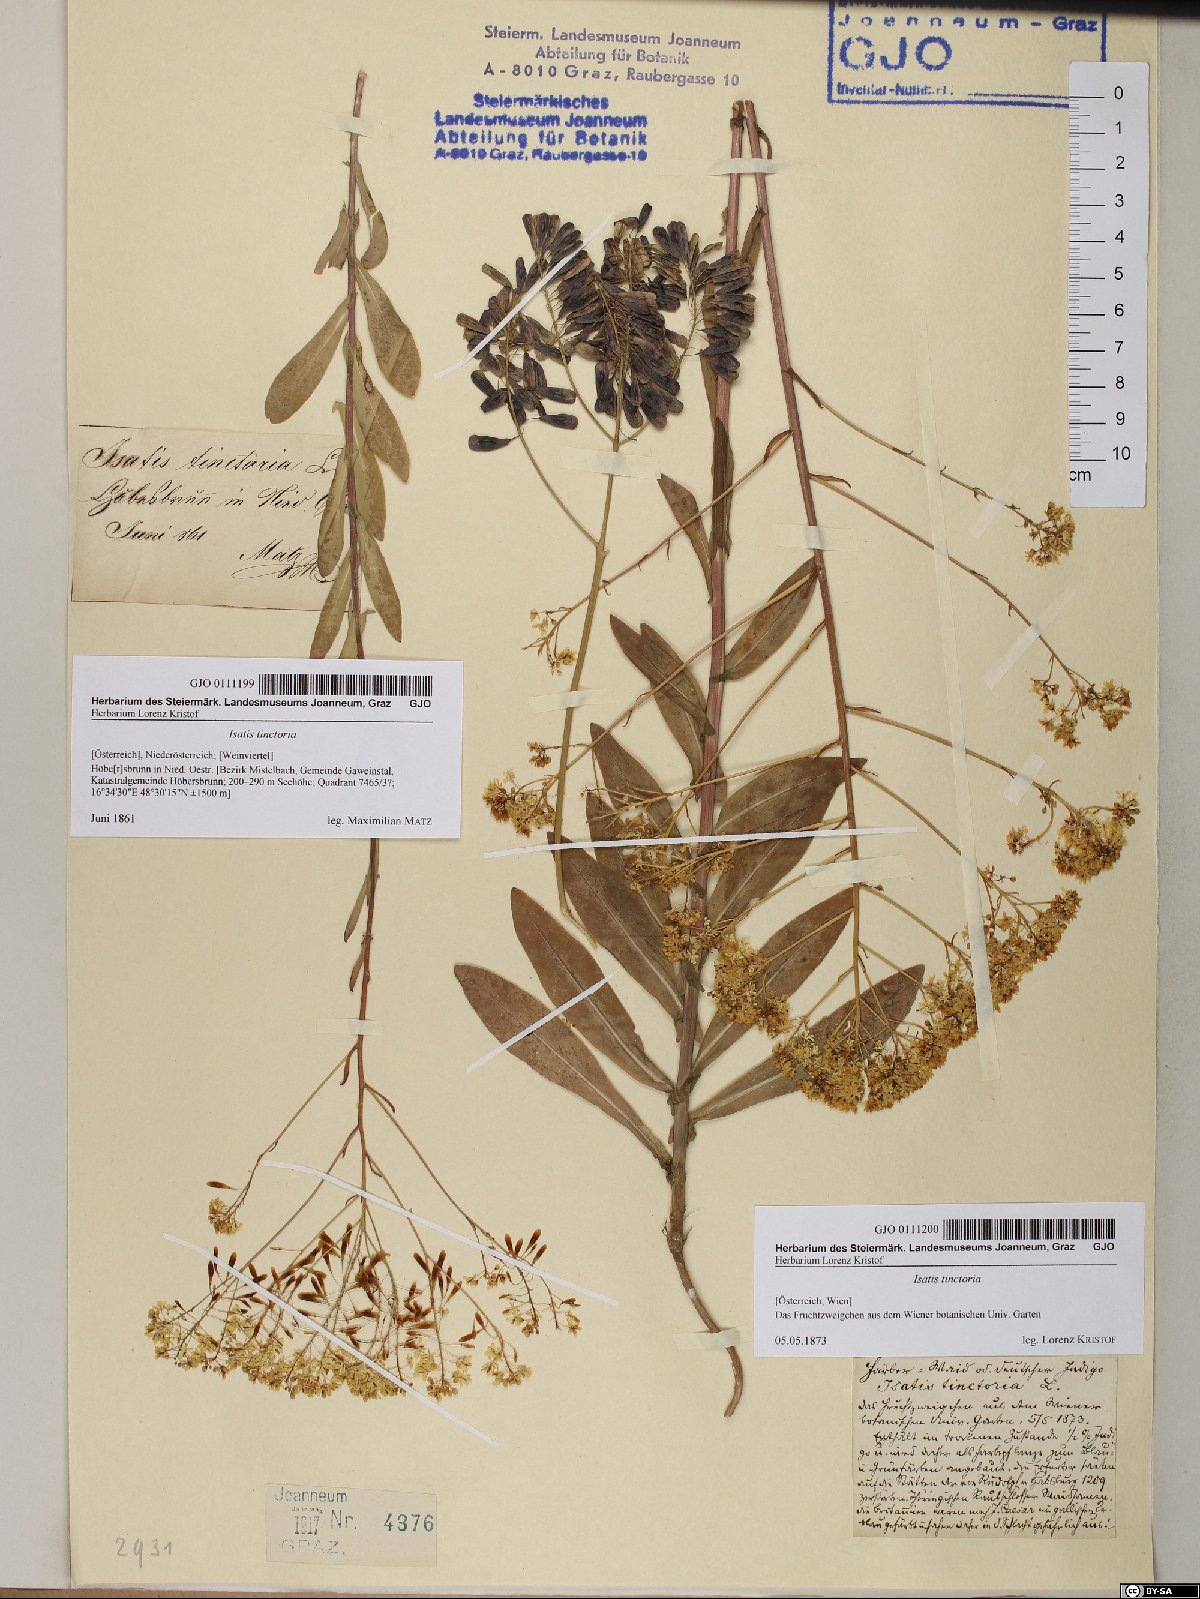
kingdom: Plantae
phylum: Tracheophyta
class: Magnoliopsida
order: Brassicales
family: Brassicaceae
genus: Isatis
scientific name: Isatis tinctoria
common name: Woad
